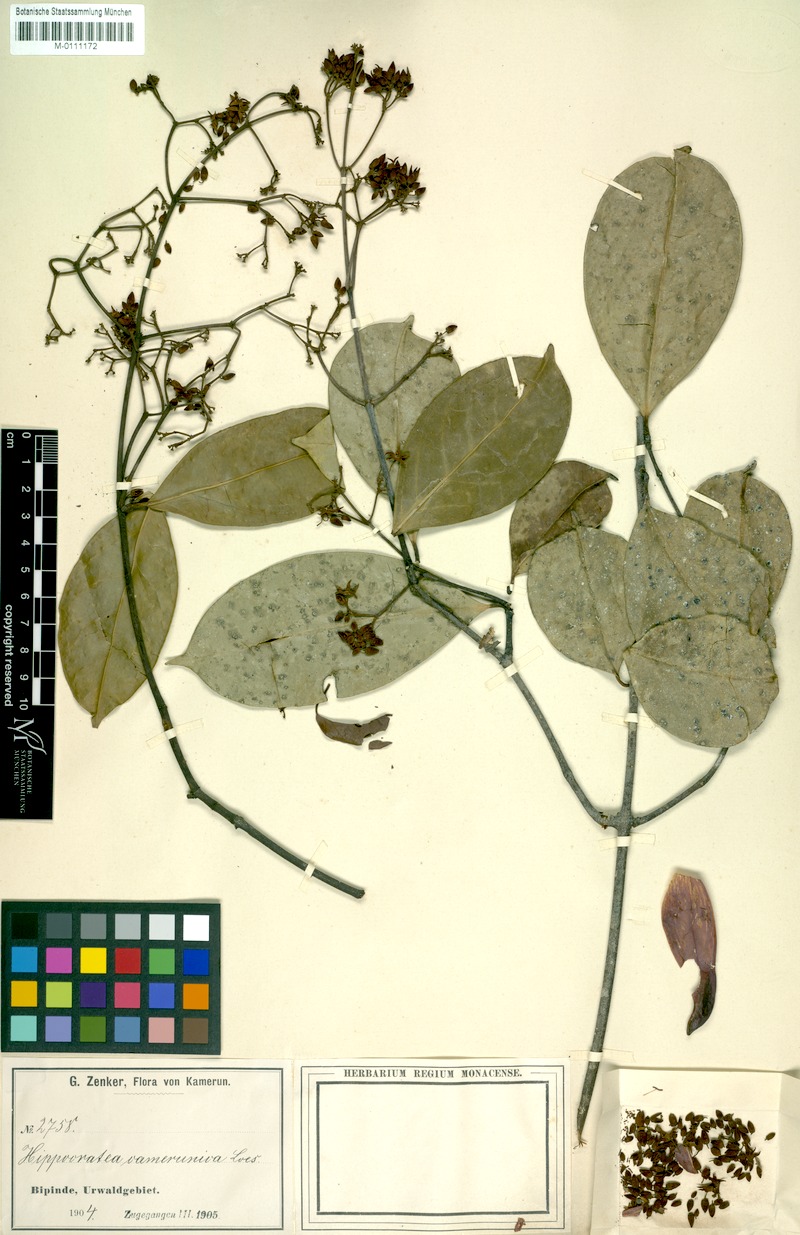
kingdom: Plantae
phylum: Tracheophyta
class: Magnoliopsida
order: Celastrales
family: Celastraceae
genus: Loeseneriella
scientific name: Loeseneriella camerunica
